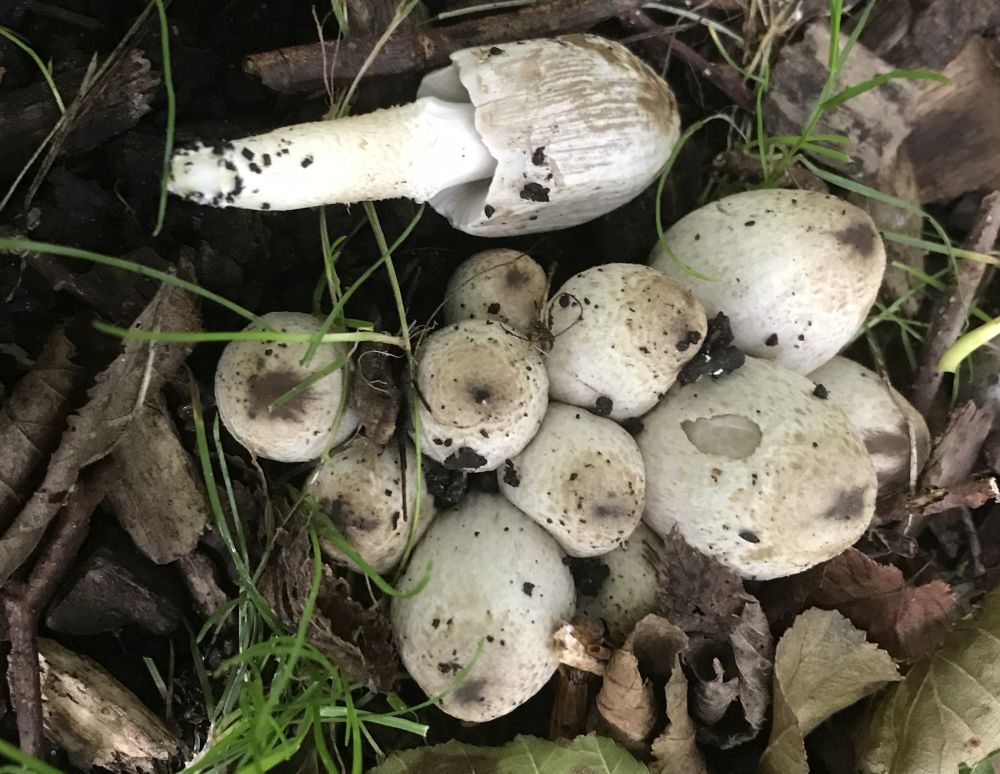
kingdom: Fungi
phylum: Basidiomycota
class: Agaricomycetes
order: Agaricales
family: Psathyrellaceae
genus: Coprinopsis
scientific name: Coprinopsis atramentaria
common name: almindelig blækhat
